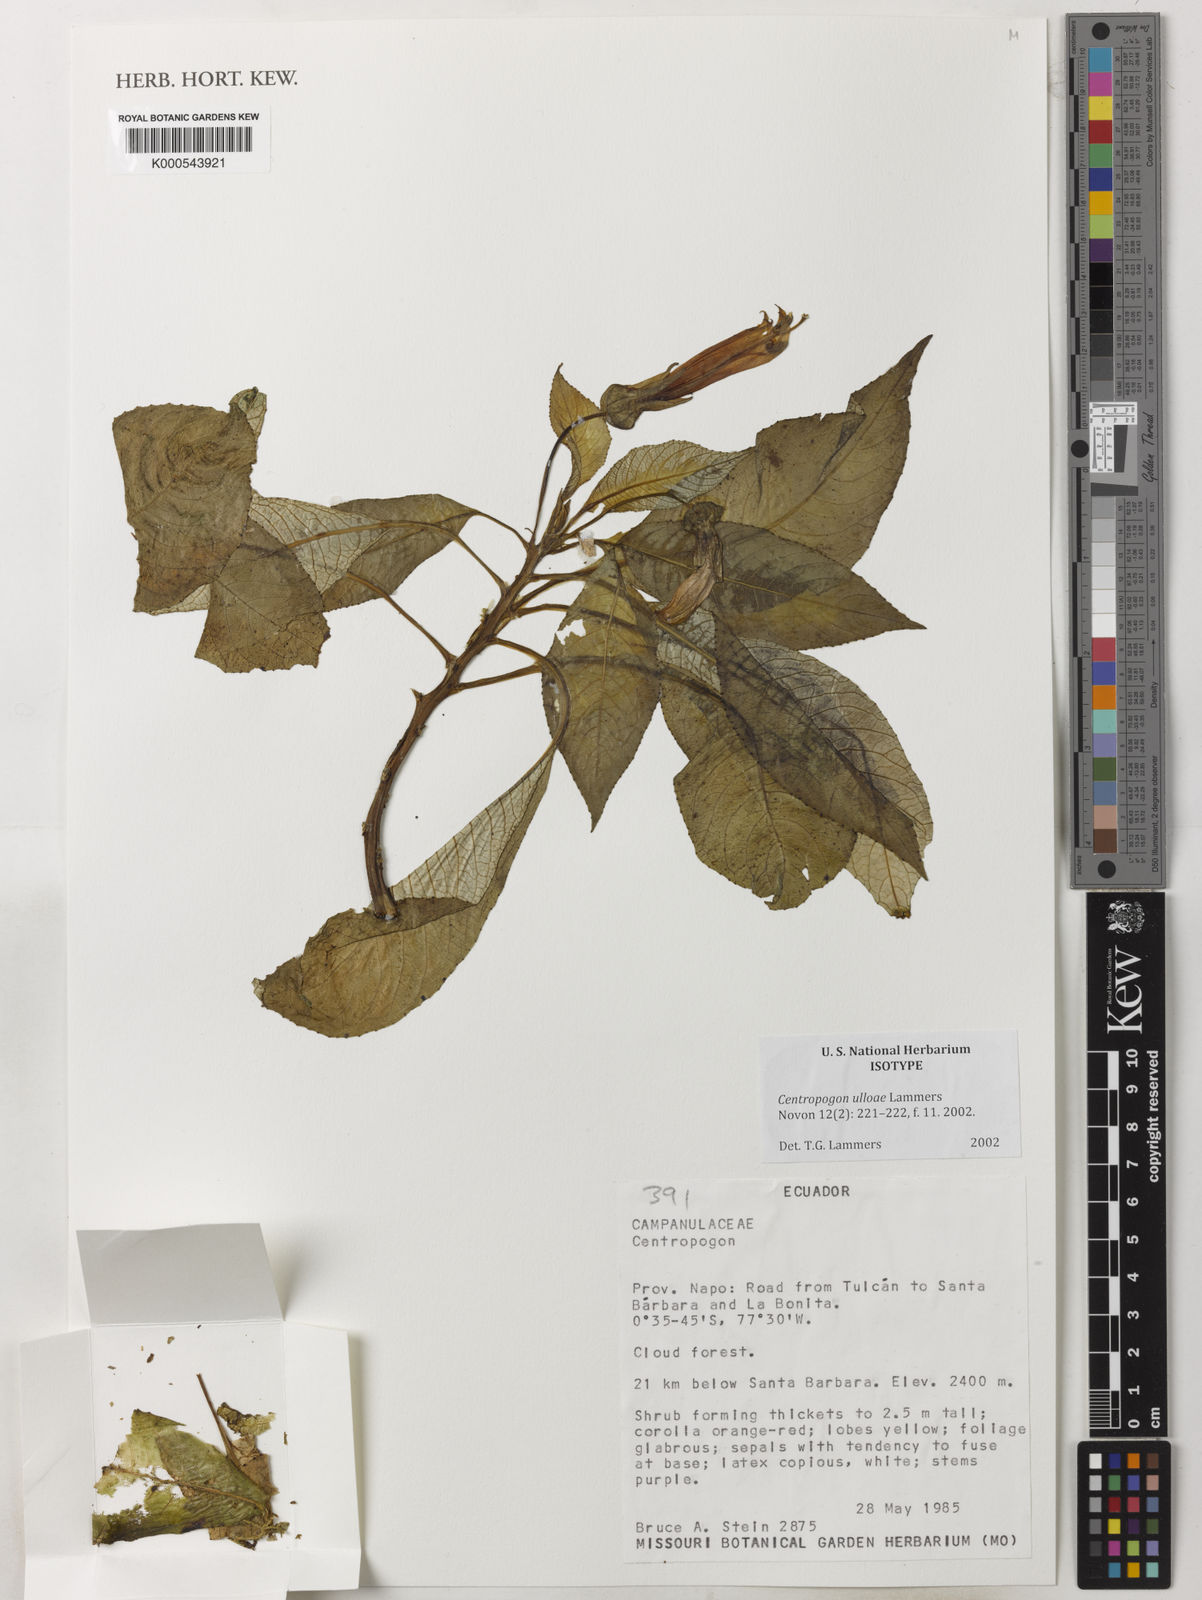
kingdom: Plantae
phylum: Tracheophyta
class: Magnoliopsida
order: Asterales
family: Campanulaceae
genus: Centropogon
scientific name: Centropogon ulloae
